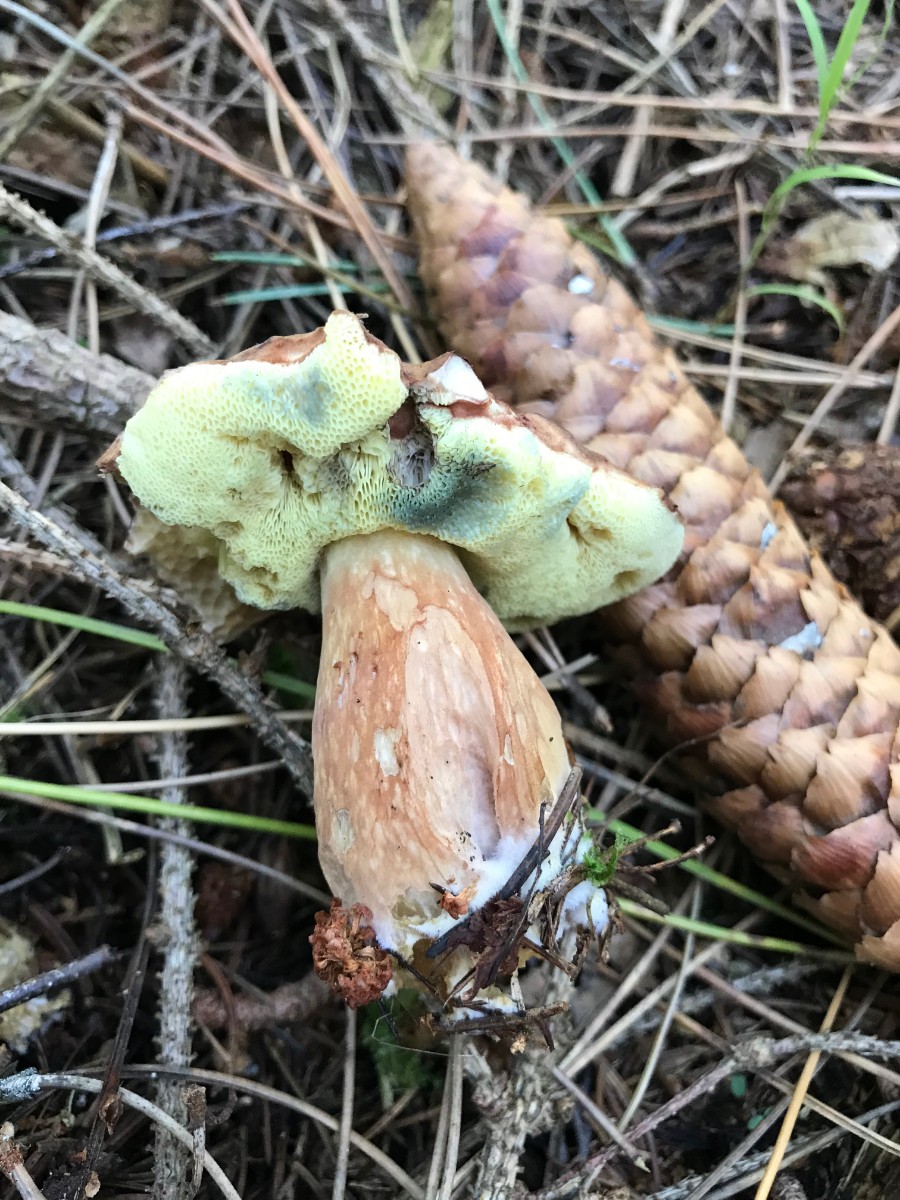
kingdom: Fungi
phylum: Basidiomycota
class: Agaricomycetes
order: Boletales
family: Boletaceae
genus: Imleria
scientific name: Imleria badia
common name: brunstokket rørhat
